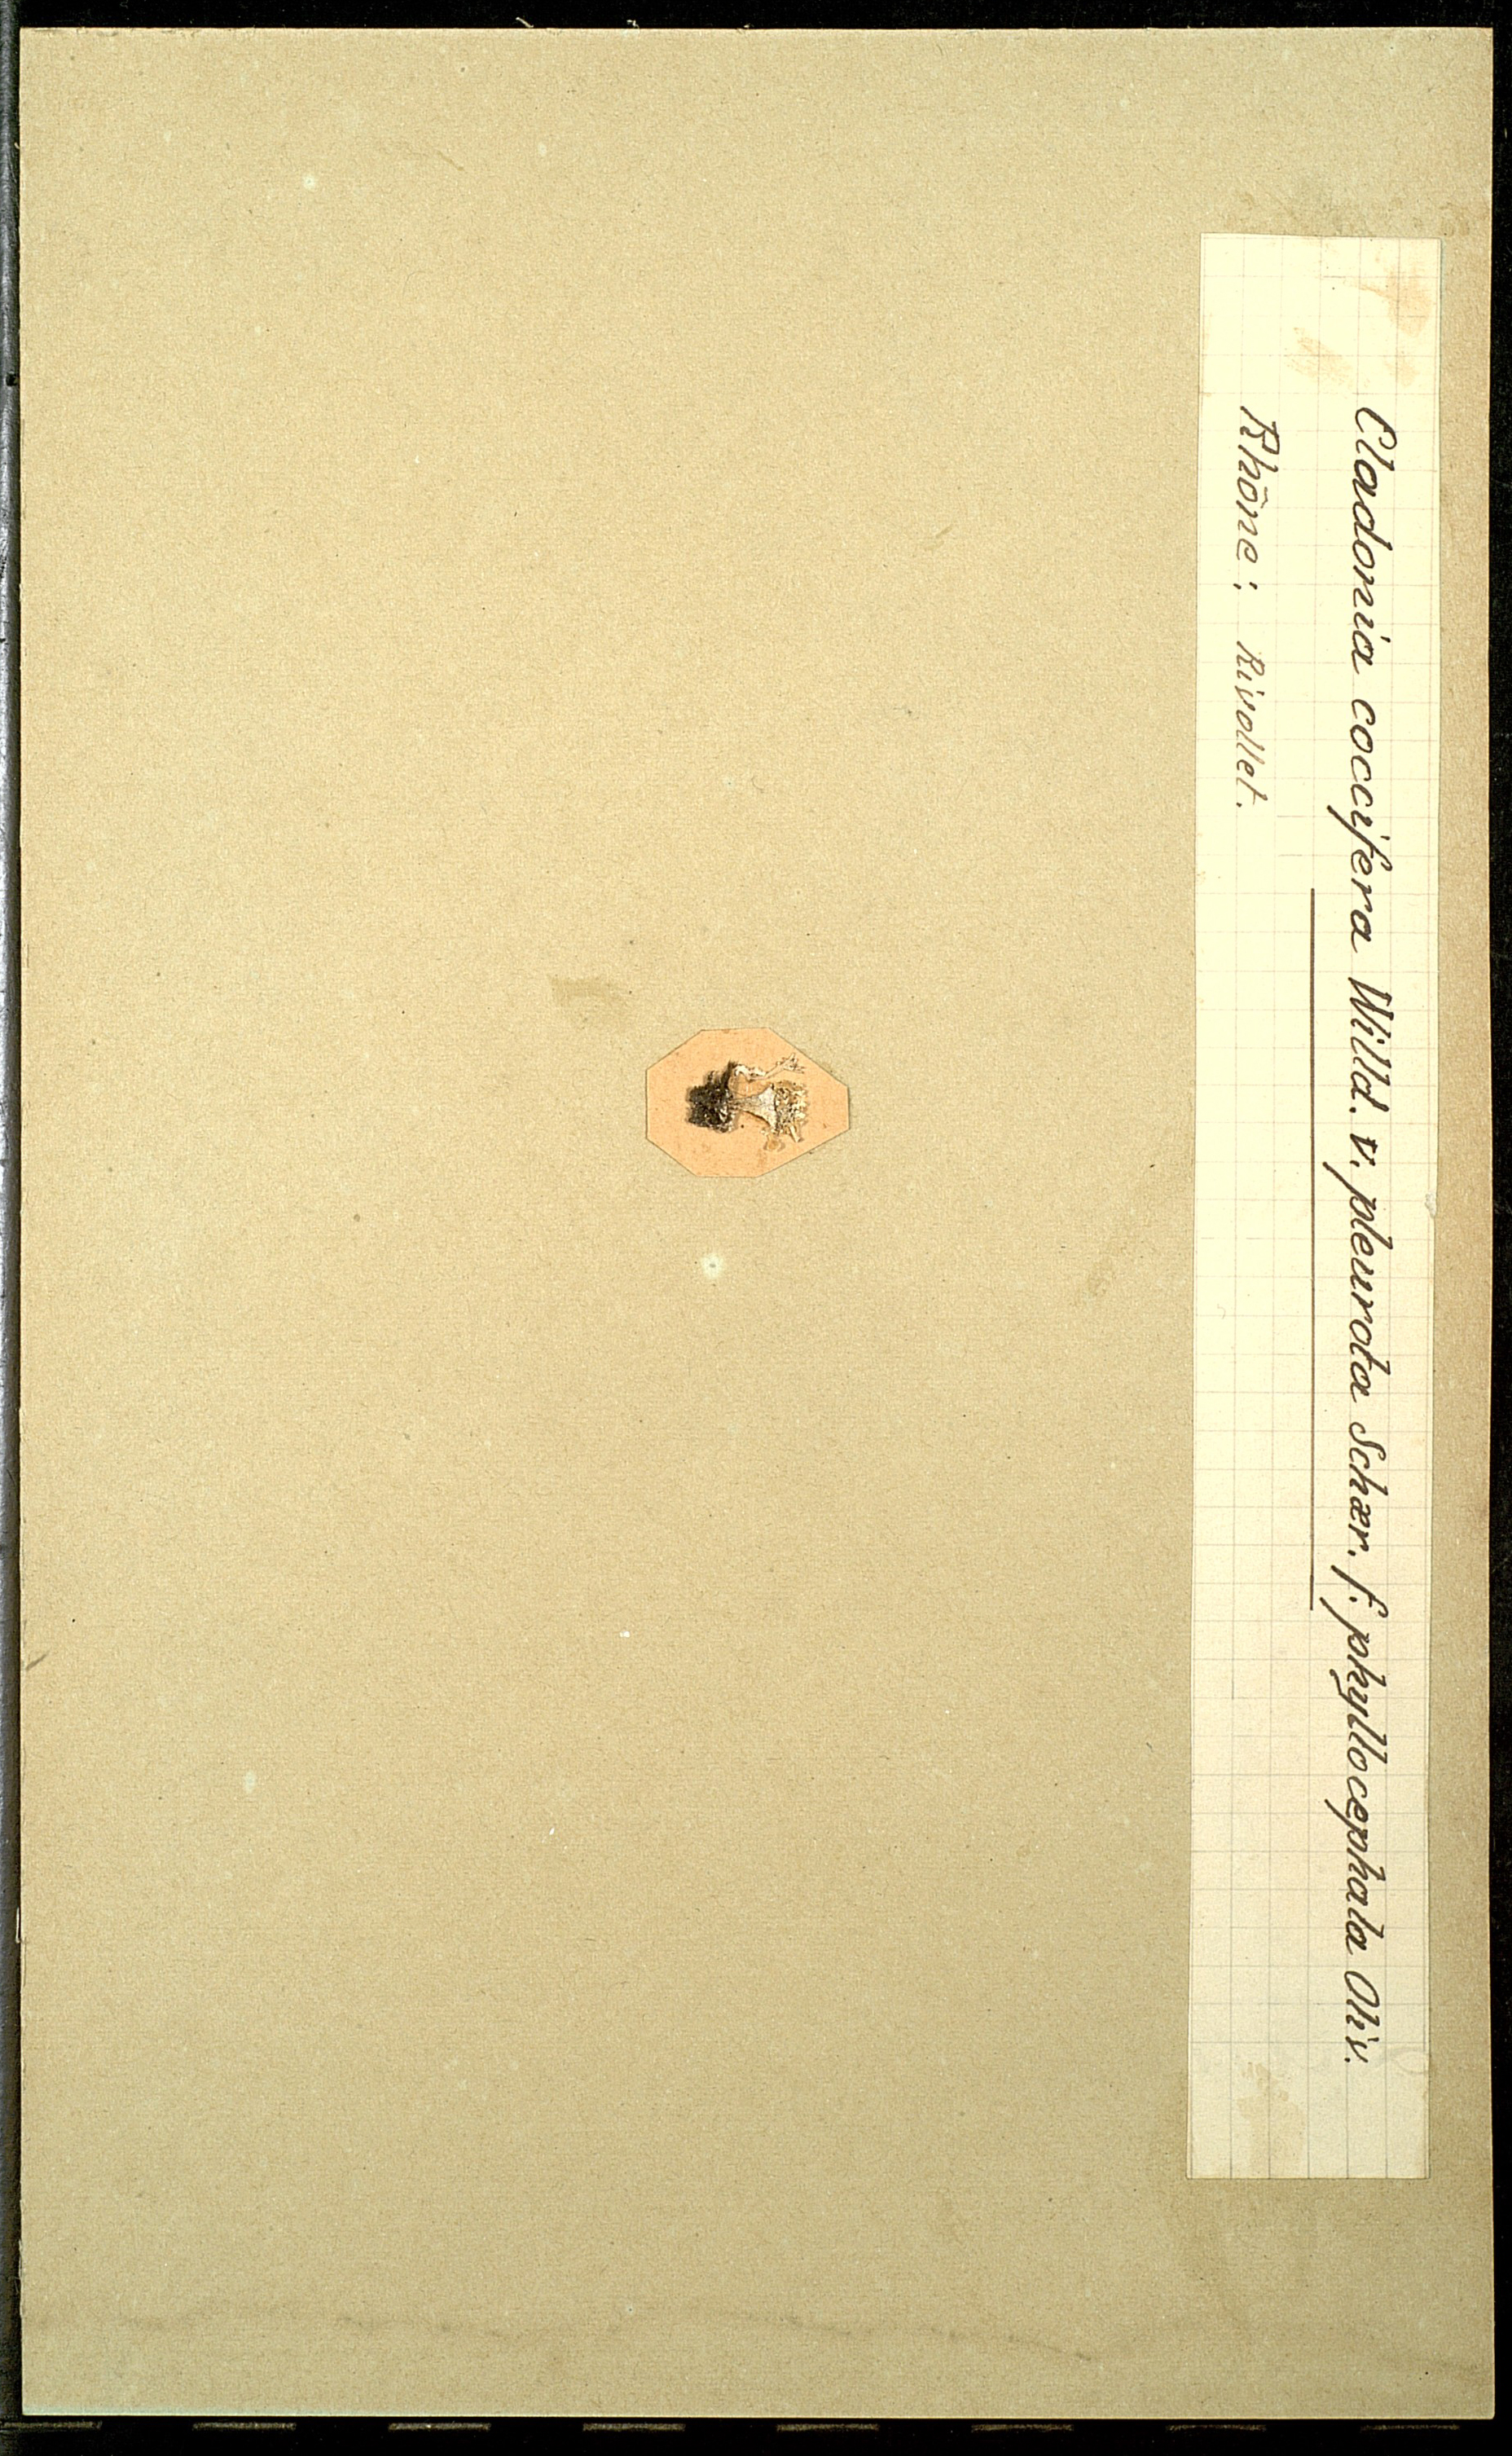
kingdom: Fungi
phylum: Ascomycota
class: Lecanoromycetes
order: Lecanorales
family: Cladoniaceae
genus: Cladonia
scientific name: Cladonia pleurota
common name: Red-fruited pixie cup
